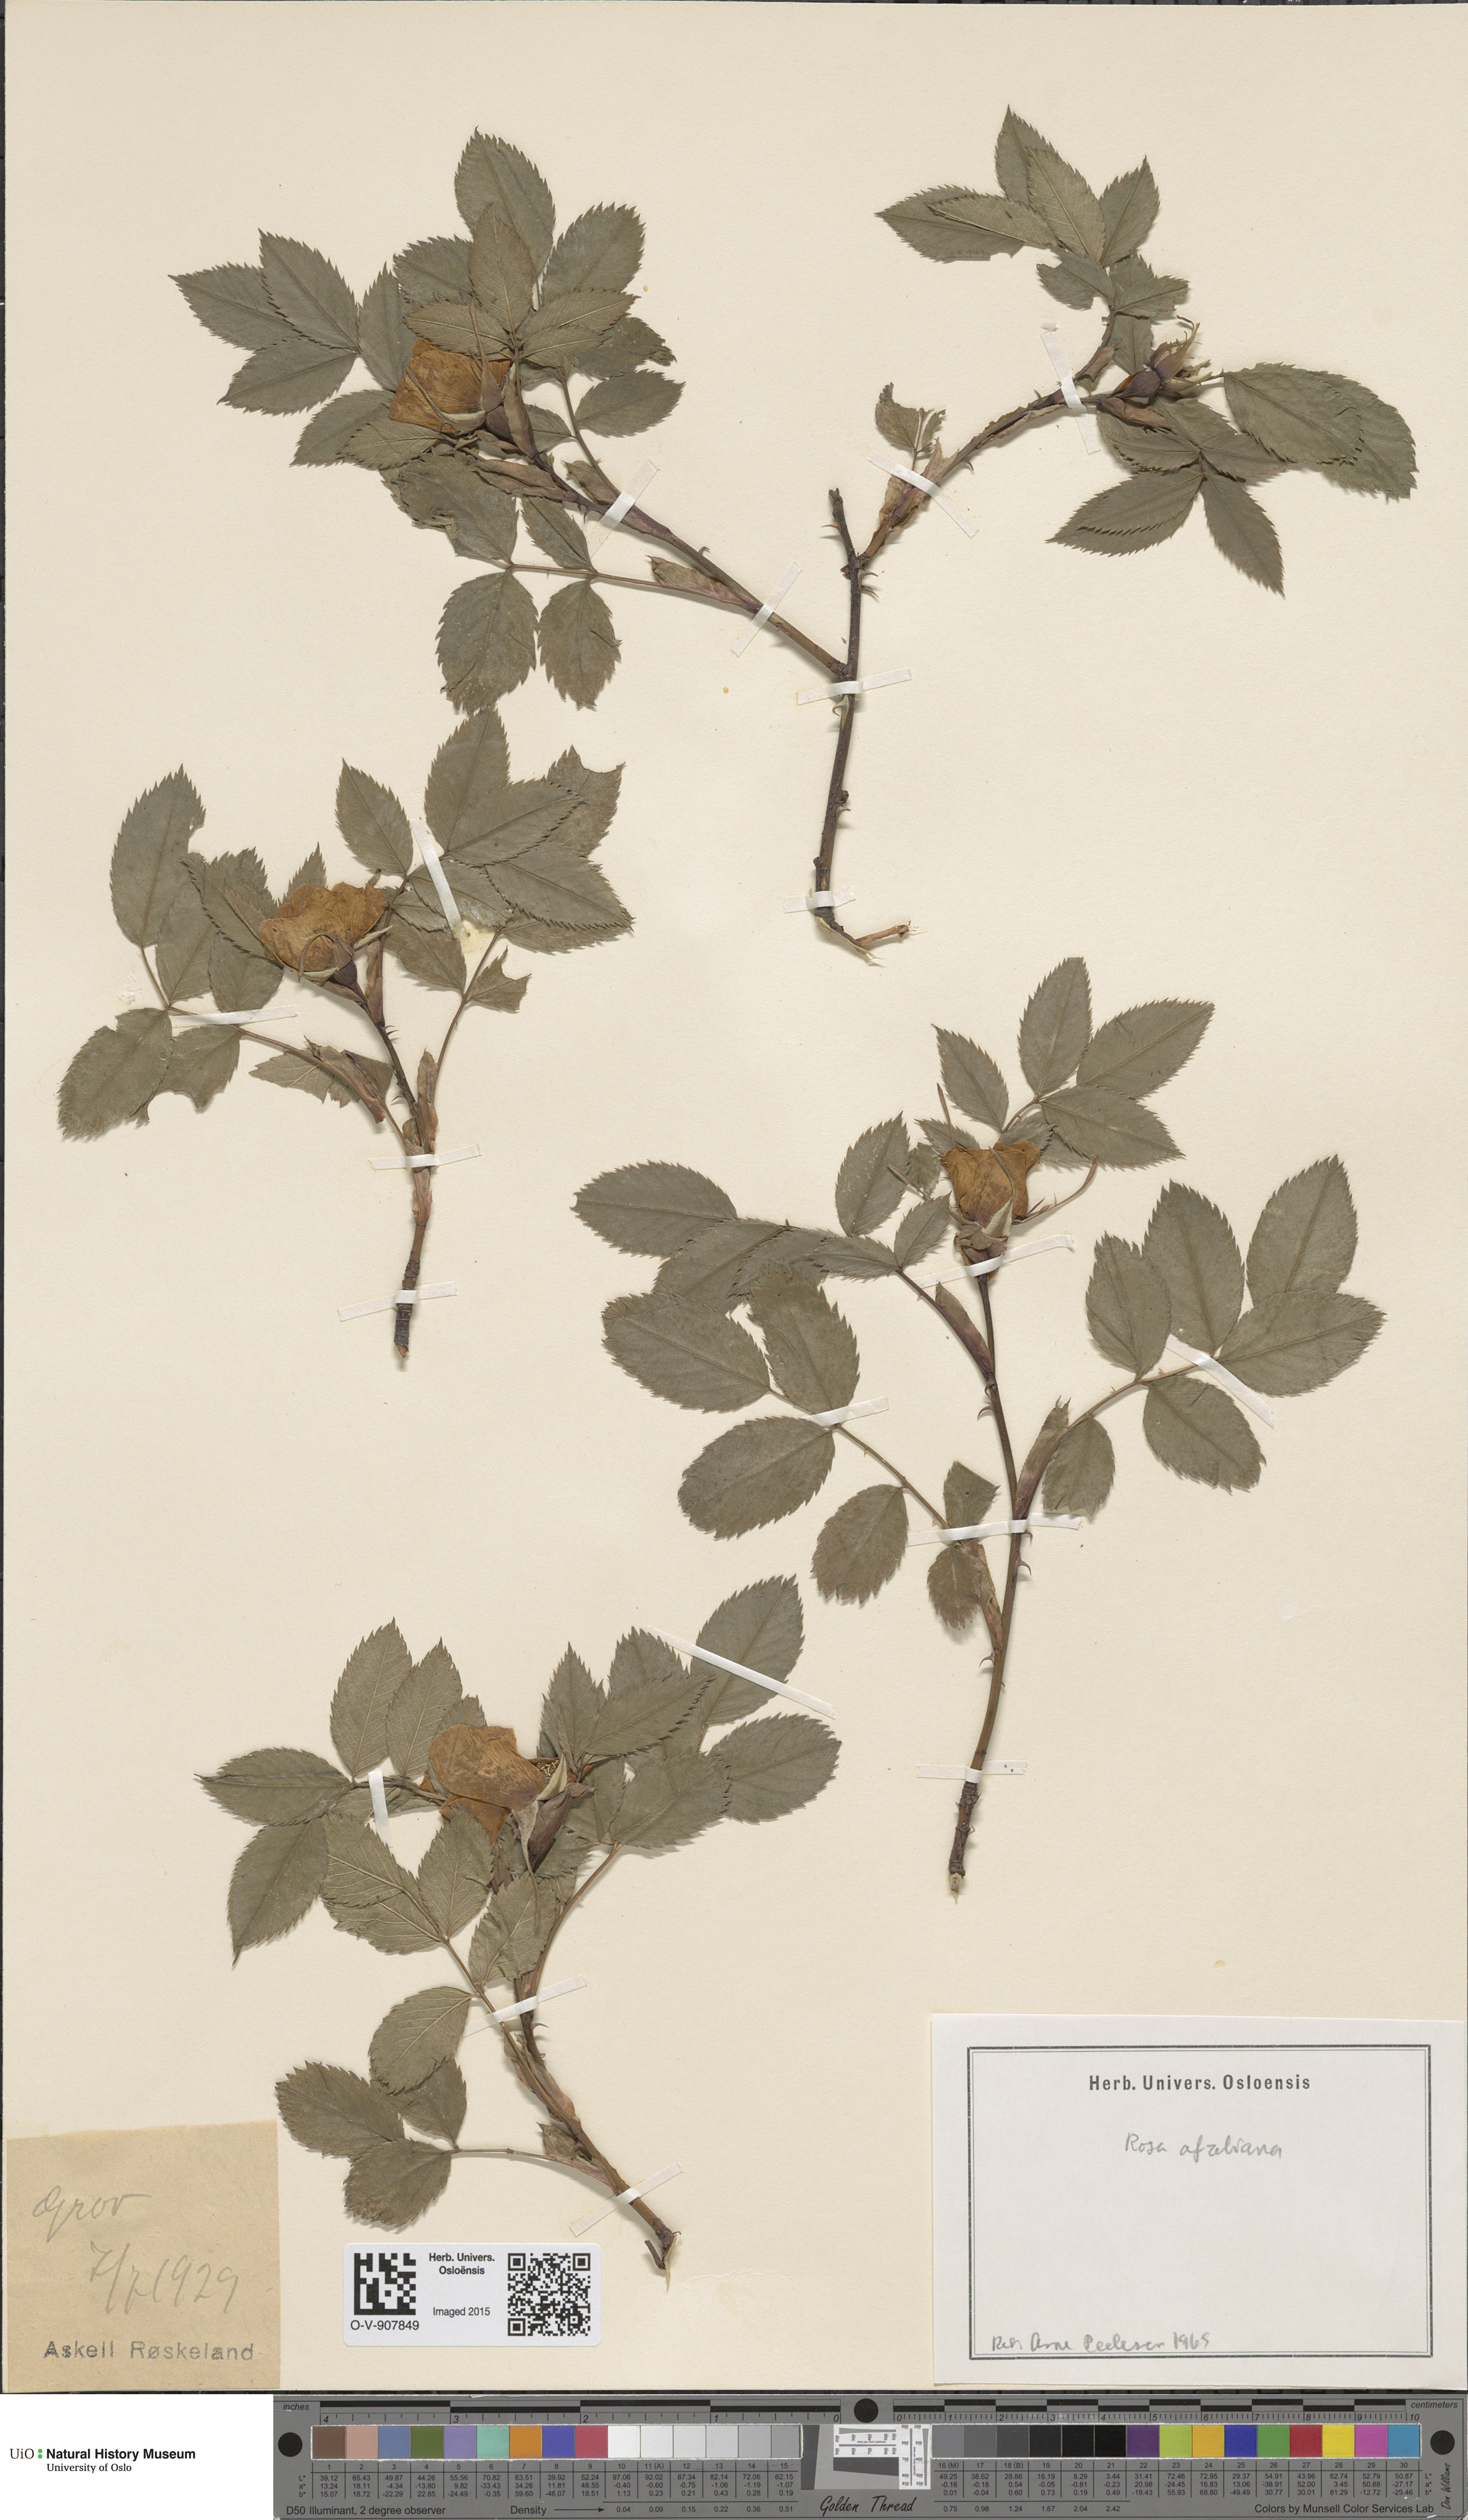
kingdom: Plantae
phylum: Tracheophyta
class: Magnoliopsida
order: Rosales
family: Rosaceae
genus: Rosa
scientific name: Rosa
